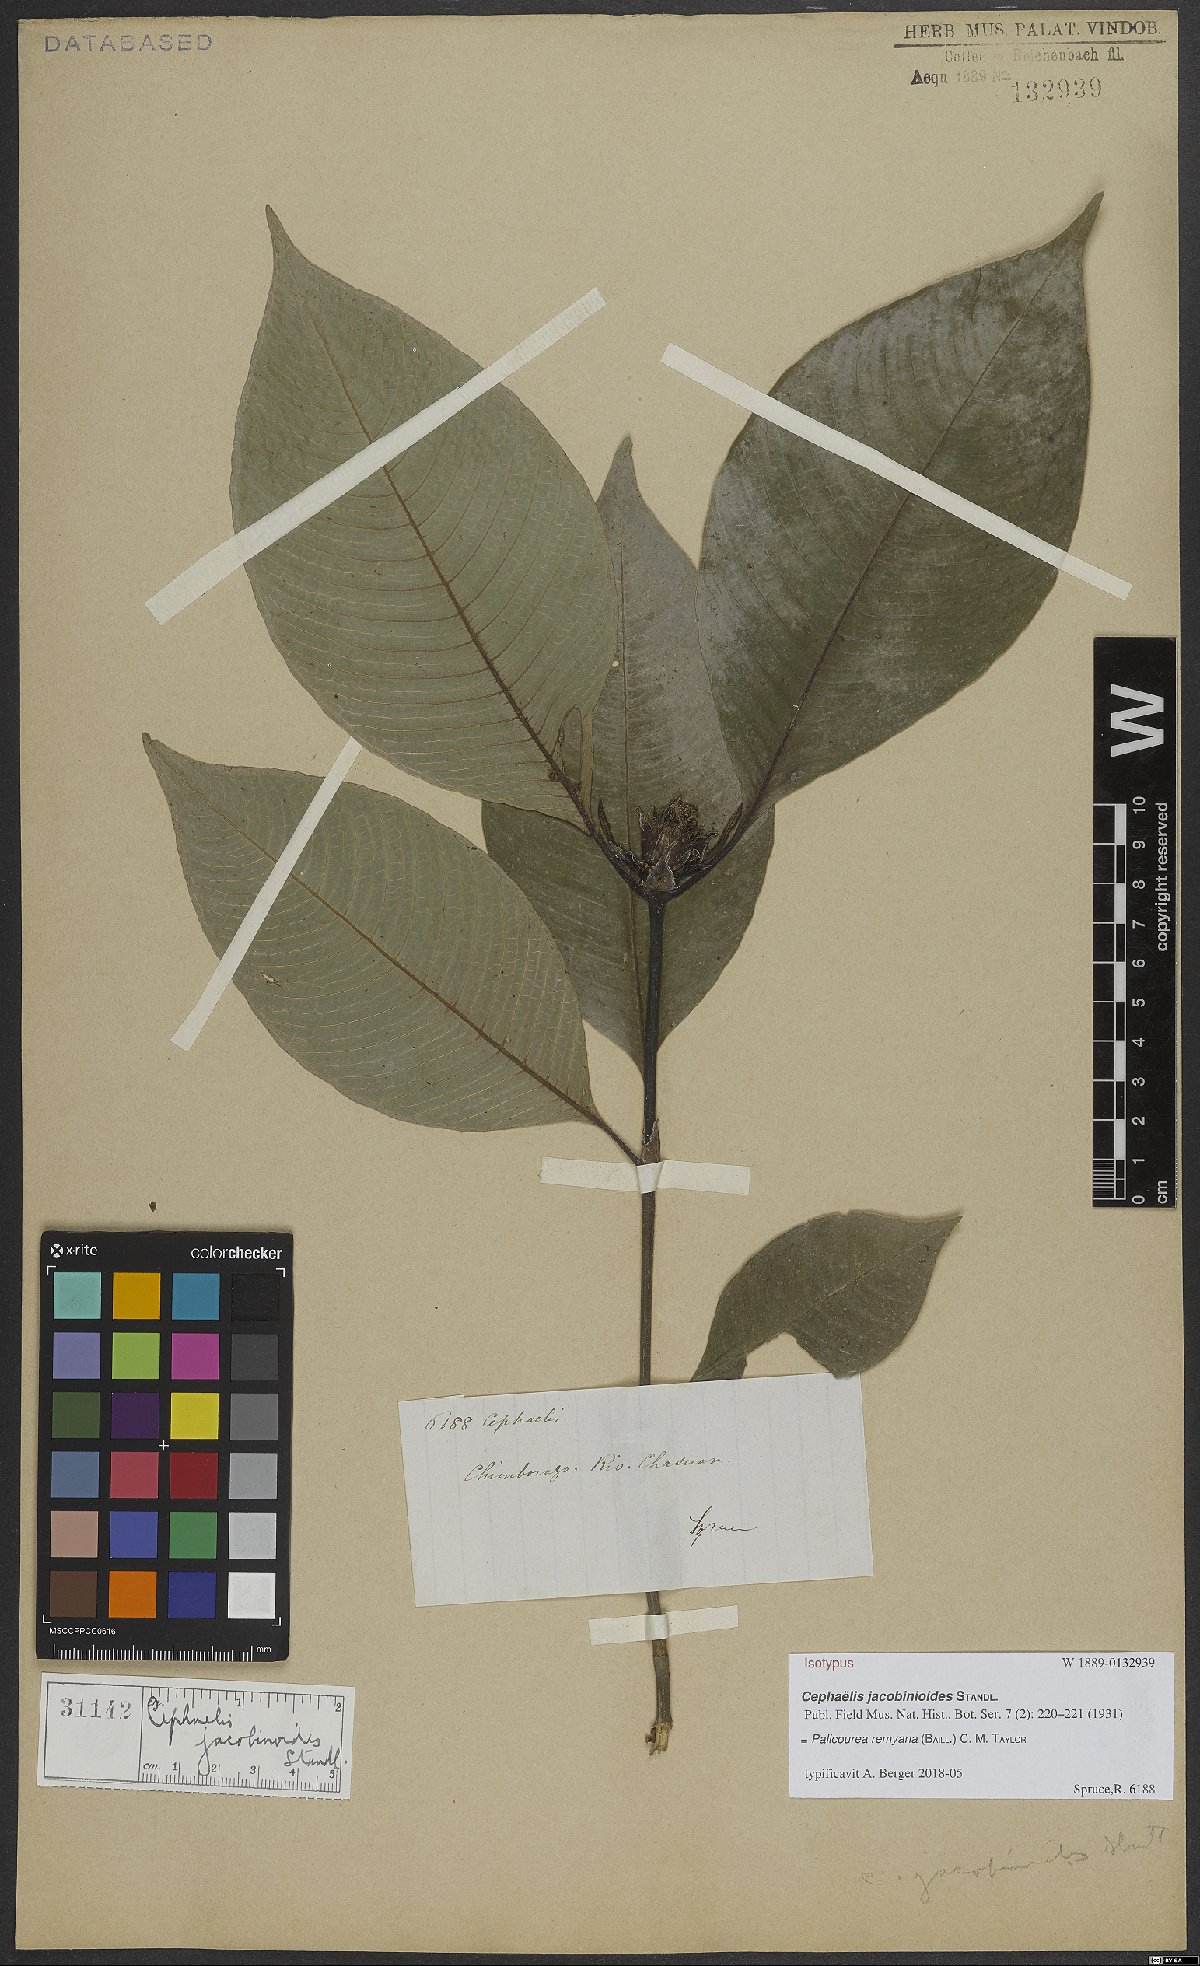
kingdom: Plantae
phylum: Tracheophyta
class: Magnoliopsida
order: Gentianales
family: Rubiaceae
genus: Palicourea
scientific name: Palicourea remyana
